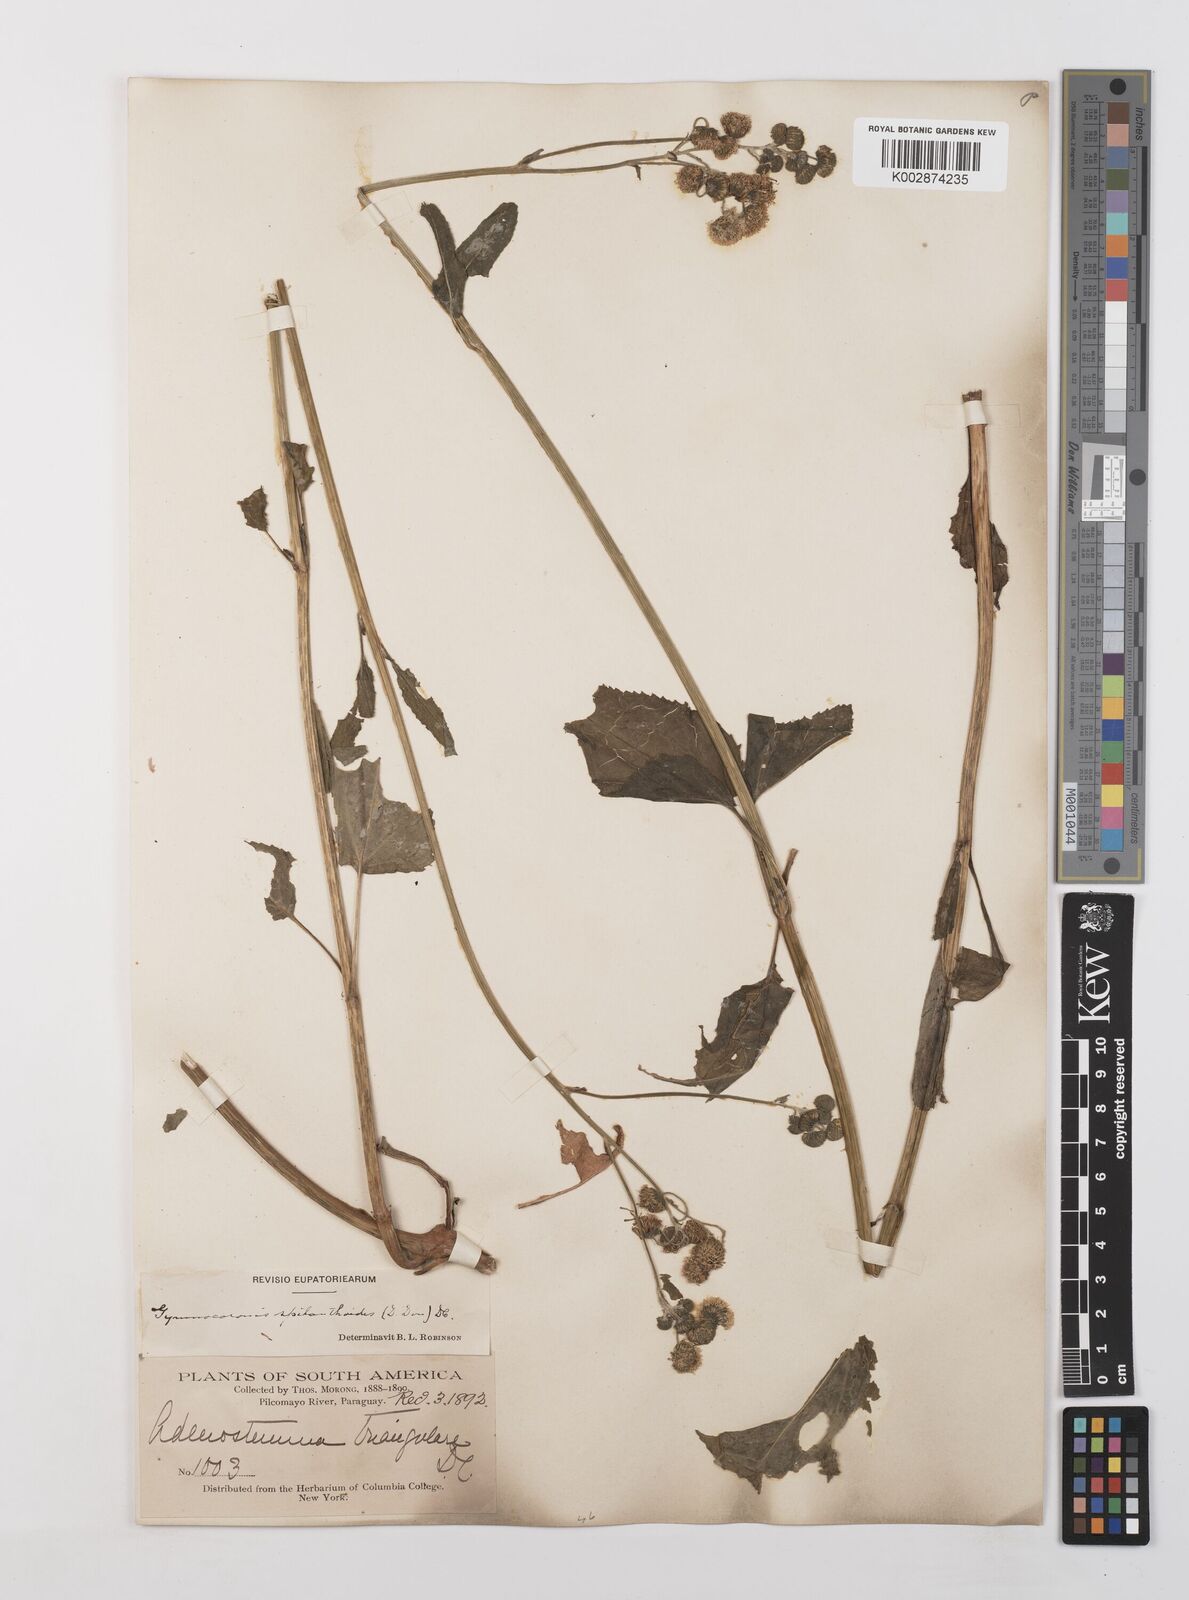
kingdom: Plantae
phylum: Tracheophyta
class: Magnoliopsida
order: Asterales
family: Asteraceae
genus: Gymnocoronis
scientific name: Gymnocoronis spilanthoides
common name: Senegal teaplant
